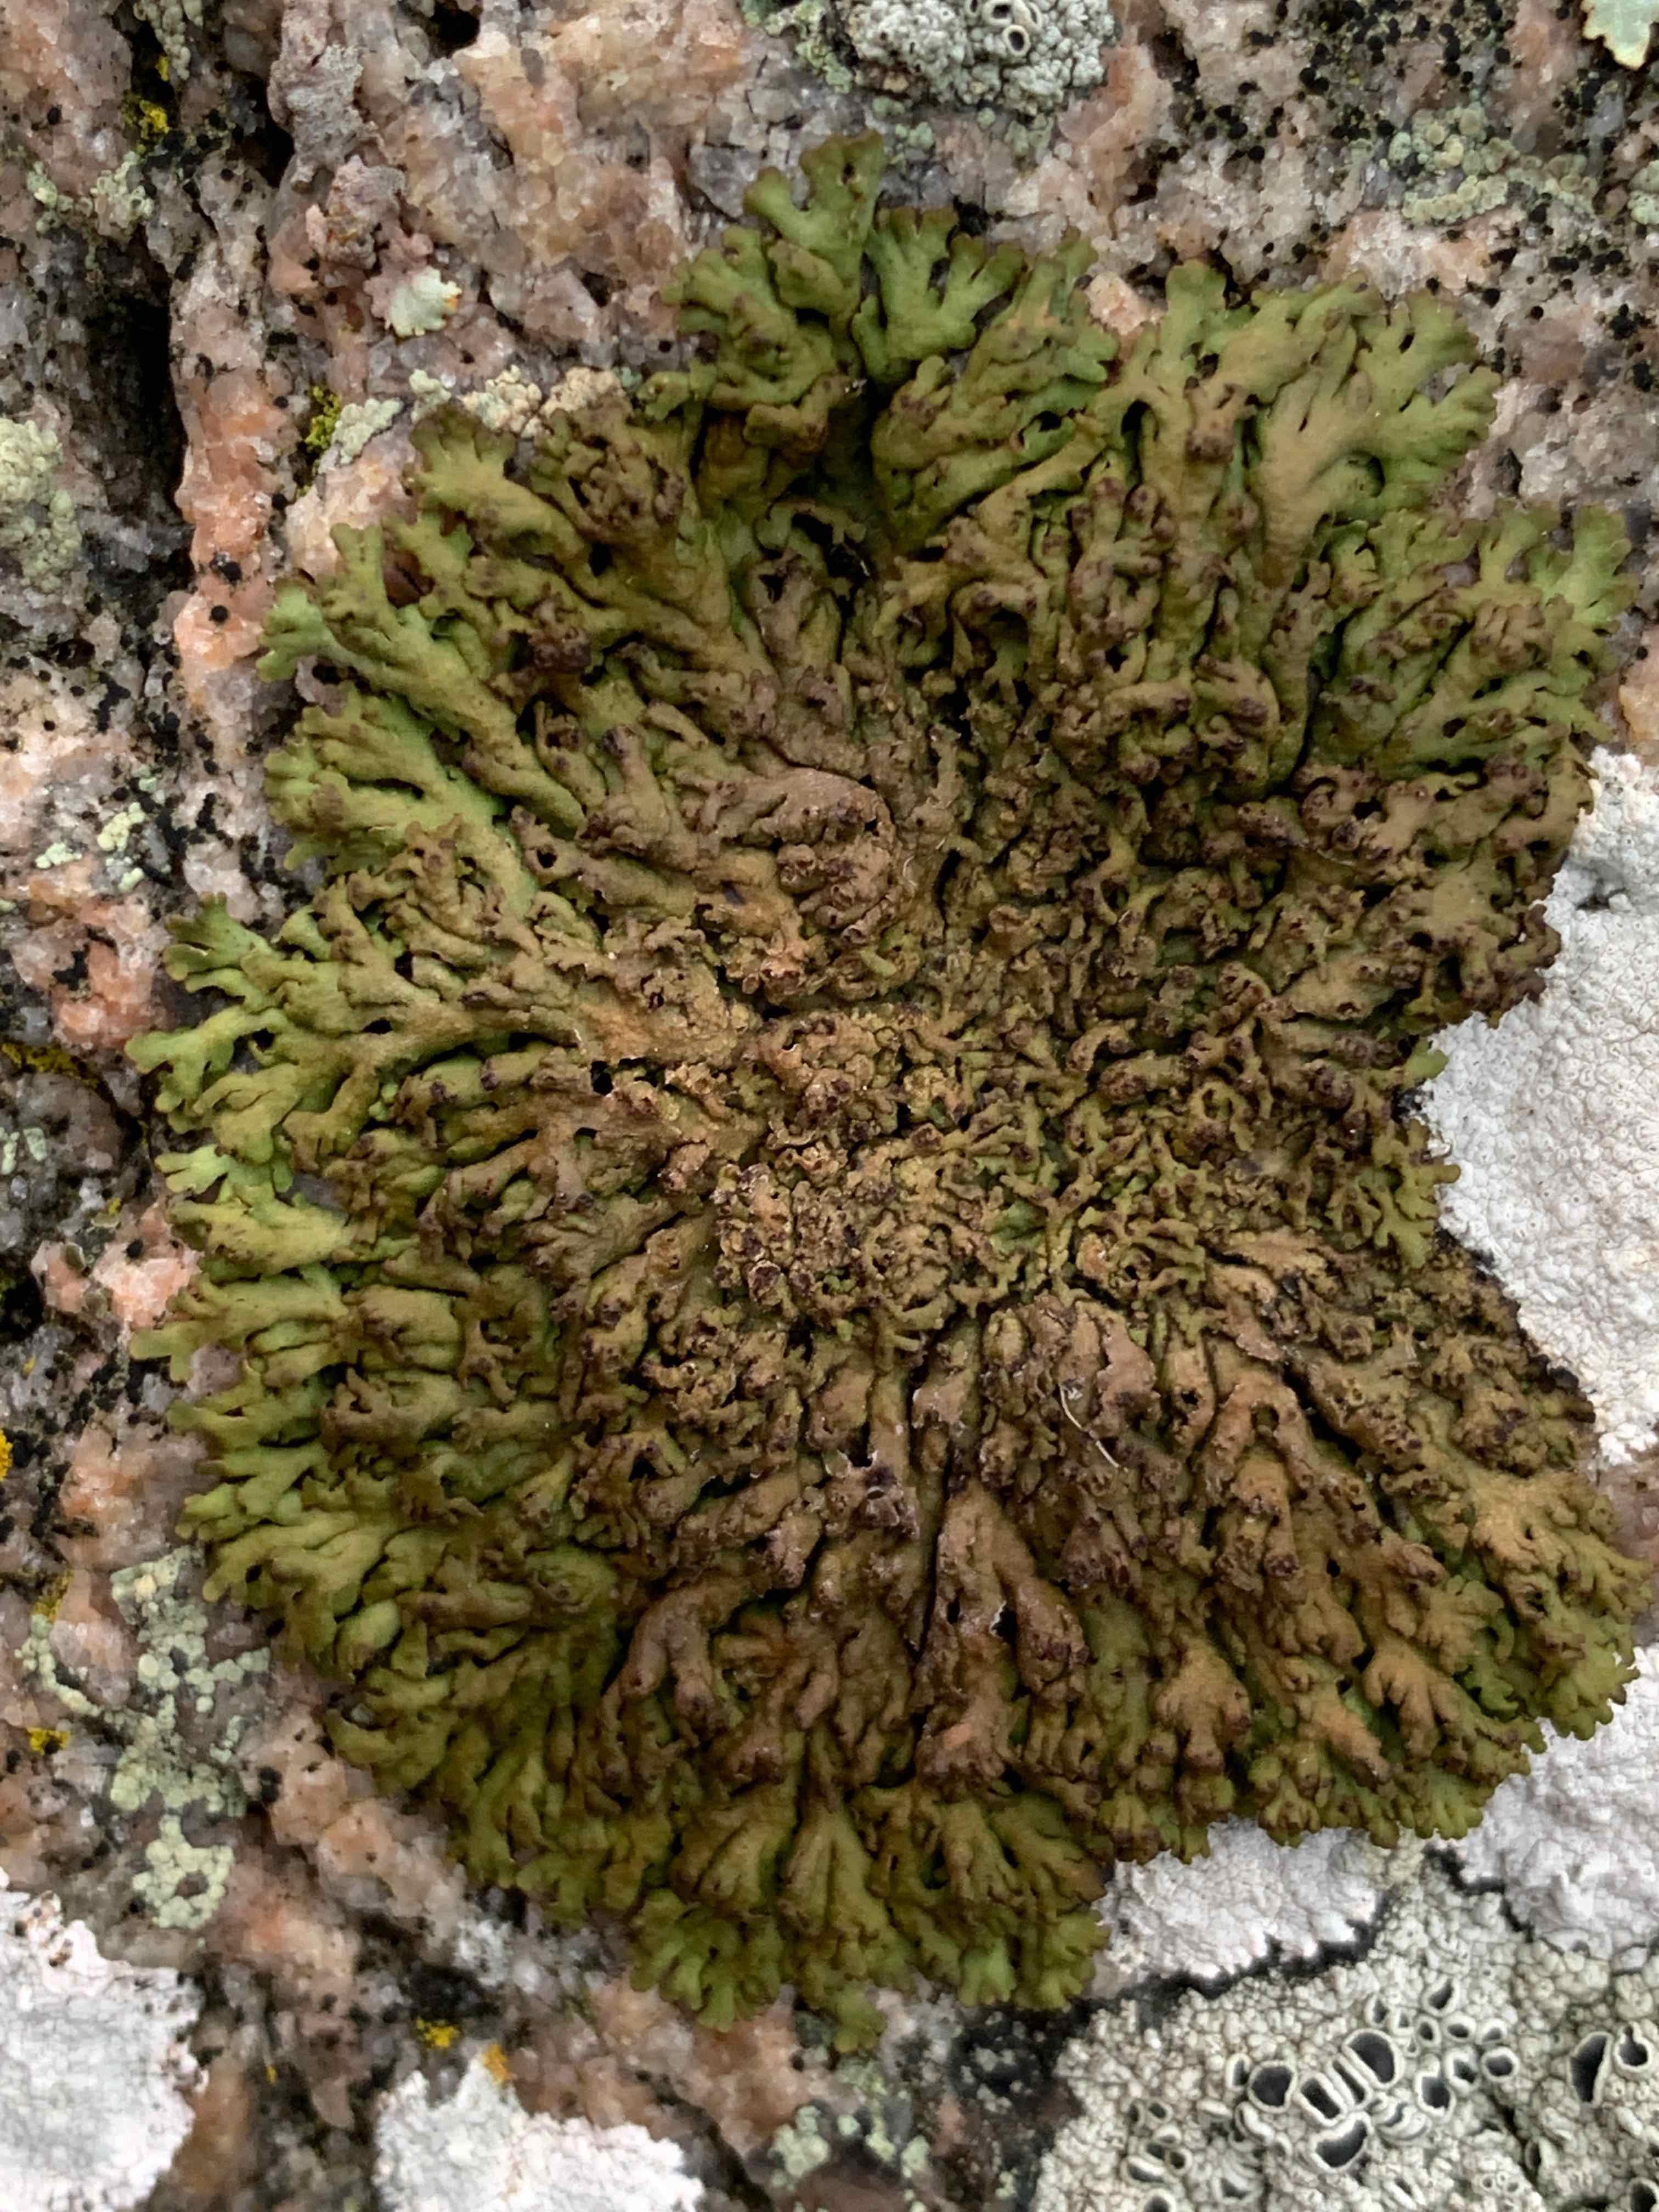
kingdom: Fungi
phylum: Ascomycota
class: Lecanoromycetes
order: Caliciales
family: Physciaceae
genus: Kurokawia
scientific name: Kurokawia runcinata
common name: brun frynselav
